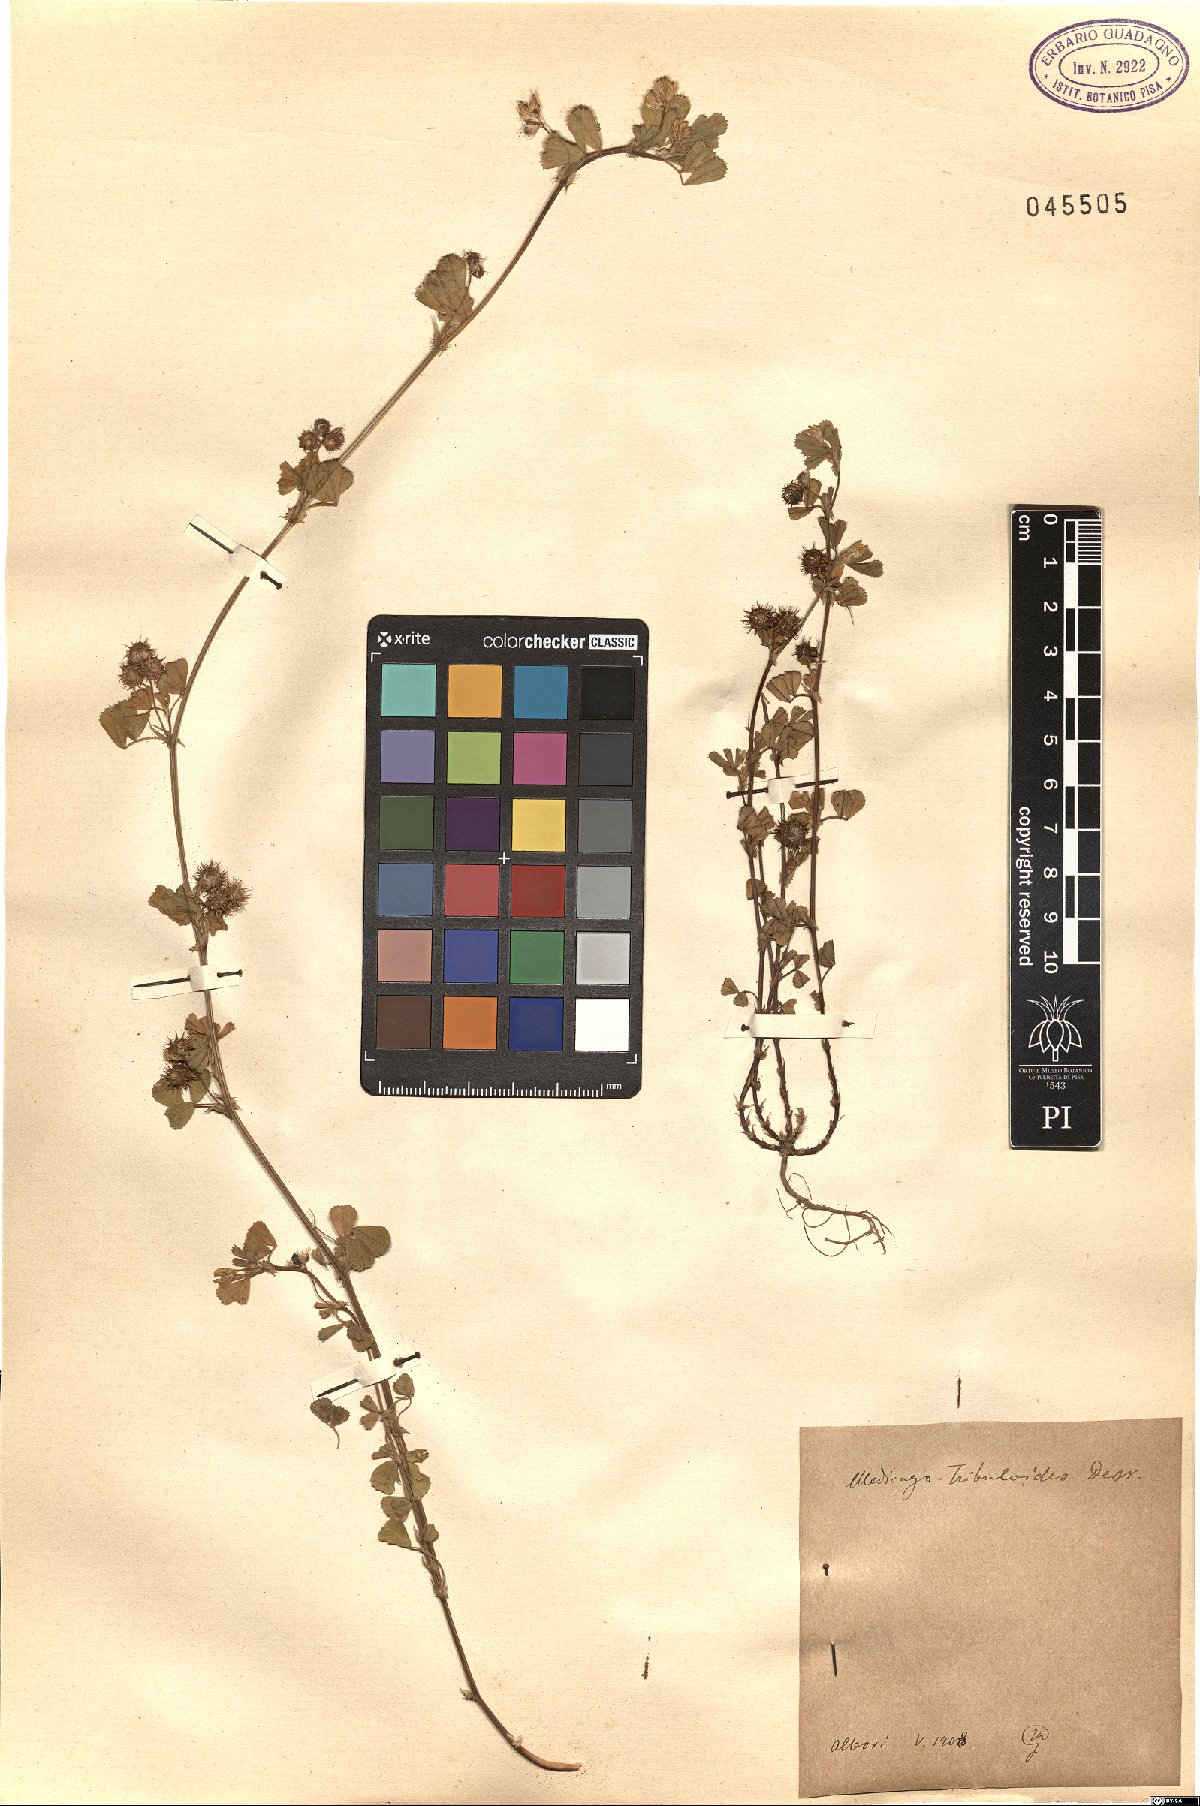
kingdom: Plantae
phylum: Tracheophyta
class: Magnoliopsida
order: Fabales
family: Fabaceae
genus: Medicago
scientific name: Medicago truncatula
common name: Strong-spined medick
